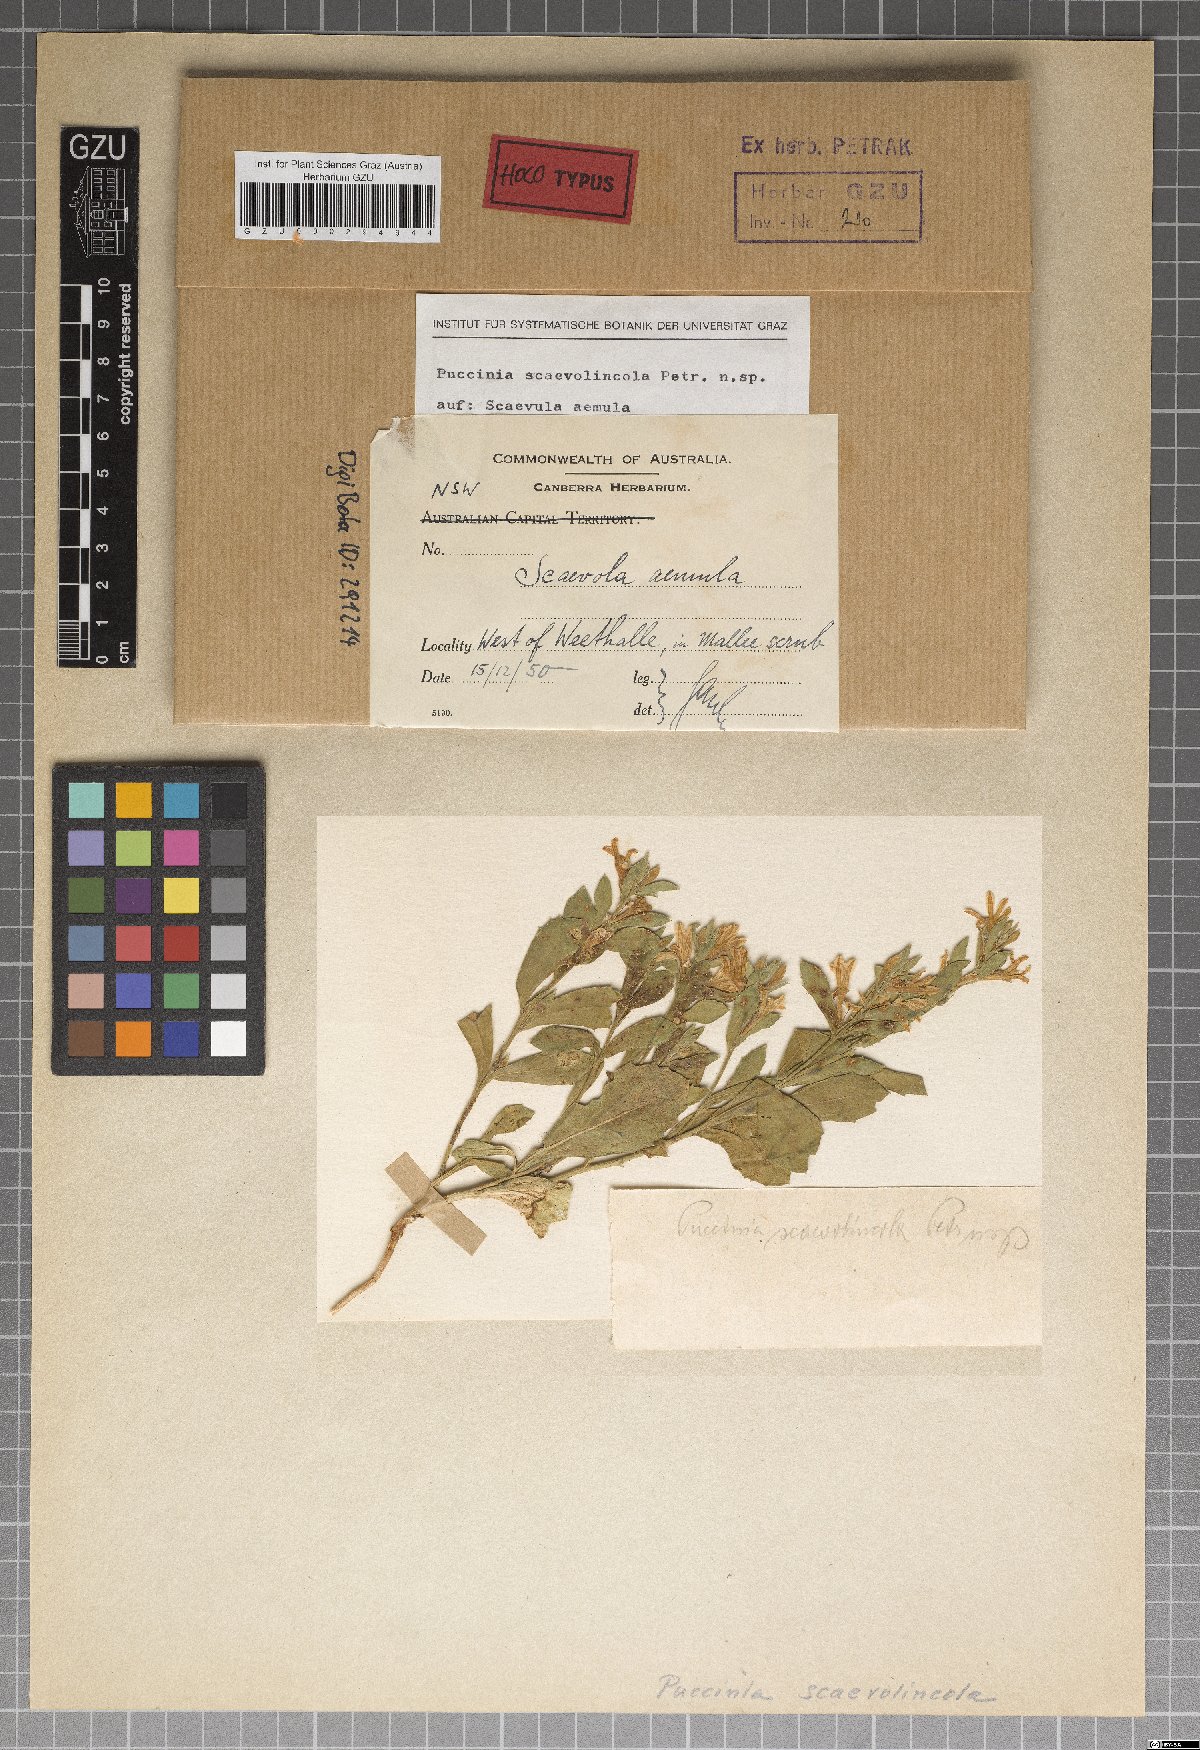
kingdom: Fungi
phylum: Basidiomycota
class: Pucciniomycetes
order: Pucciniales
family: Pucciniaceae
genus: Puccinia
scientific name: Puccinia scaevolincola
